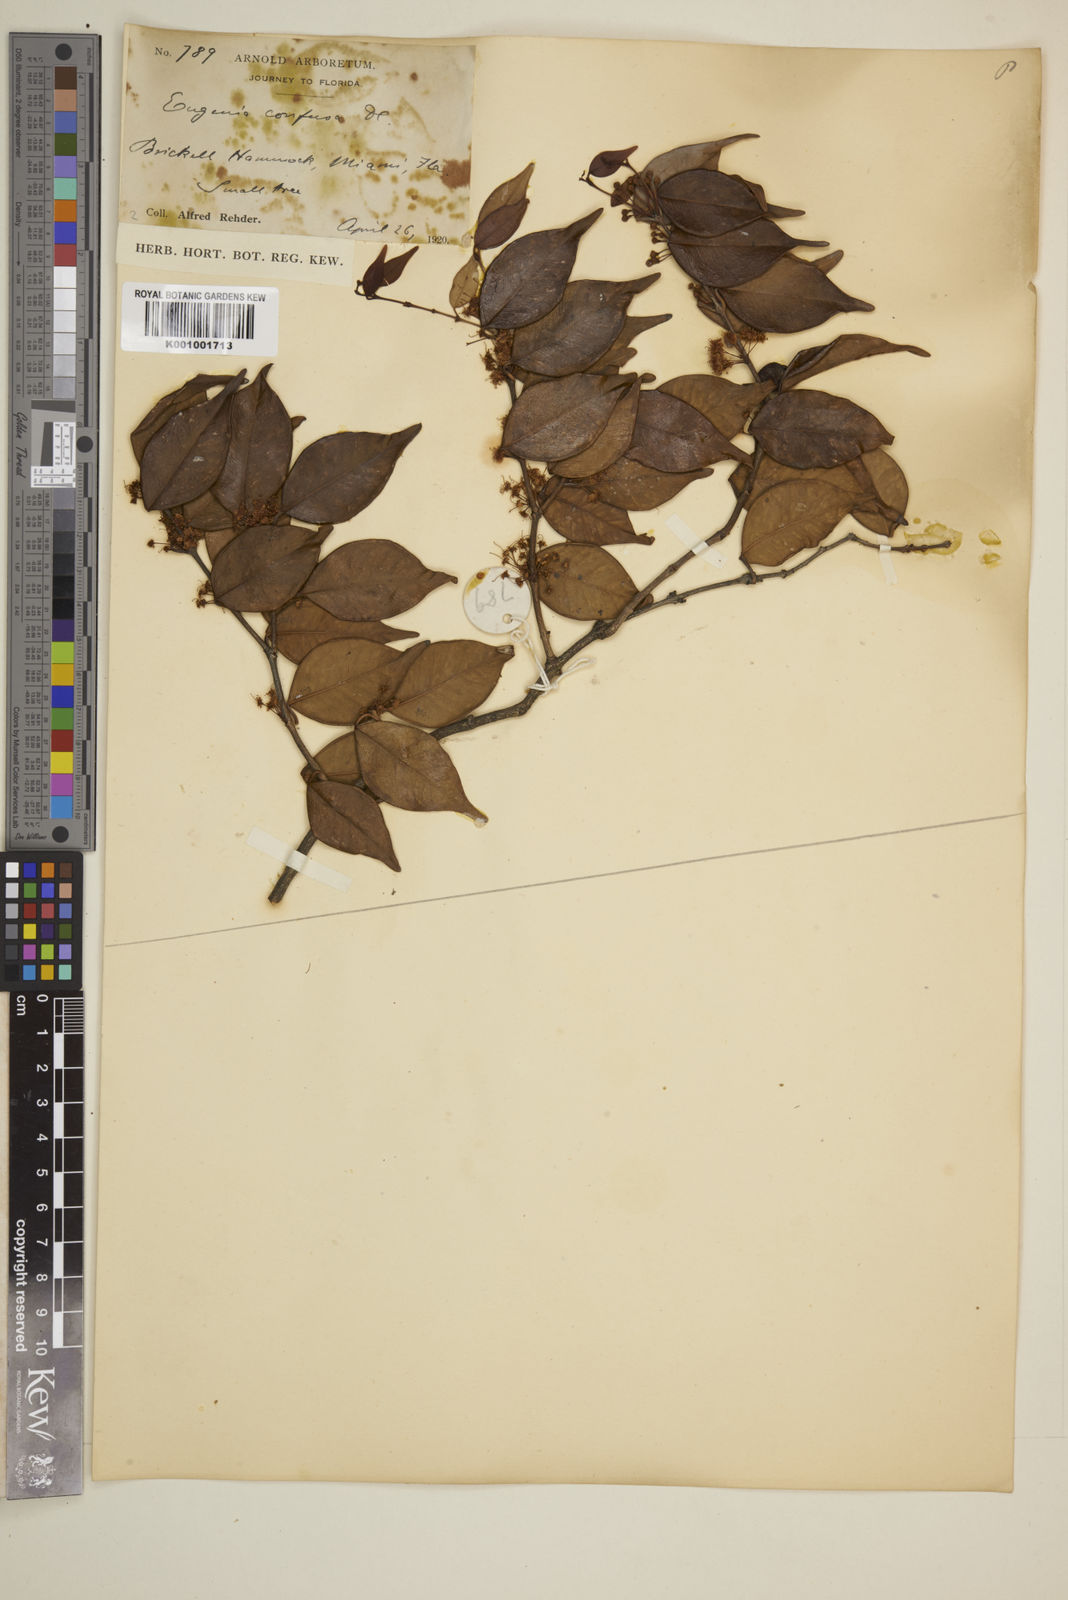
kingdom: Plantae
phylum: Tracheophyta
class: Magnoliopsida
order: Myrtales
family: Myrtaceae
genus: Eugenia
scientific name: Eugenia confusa
